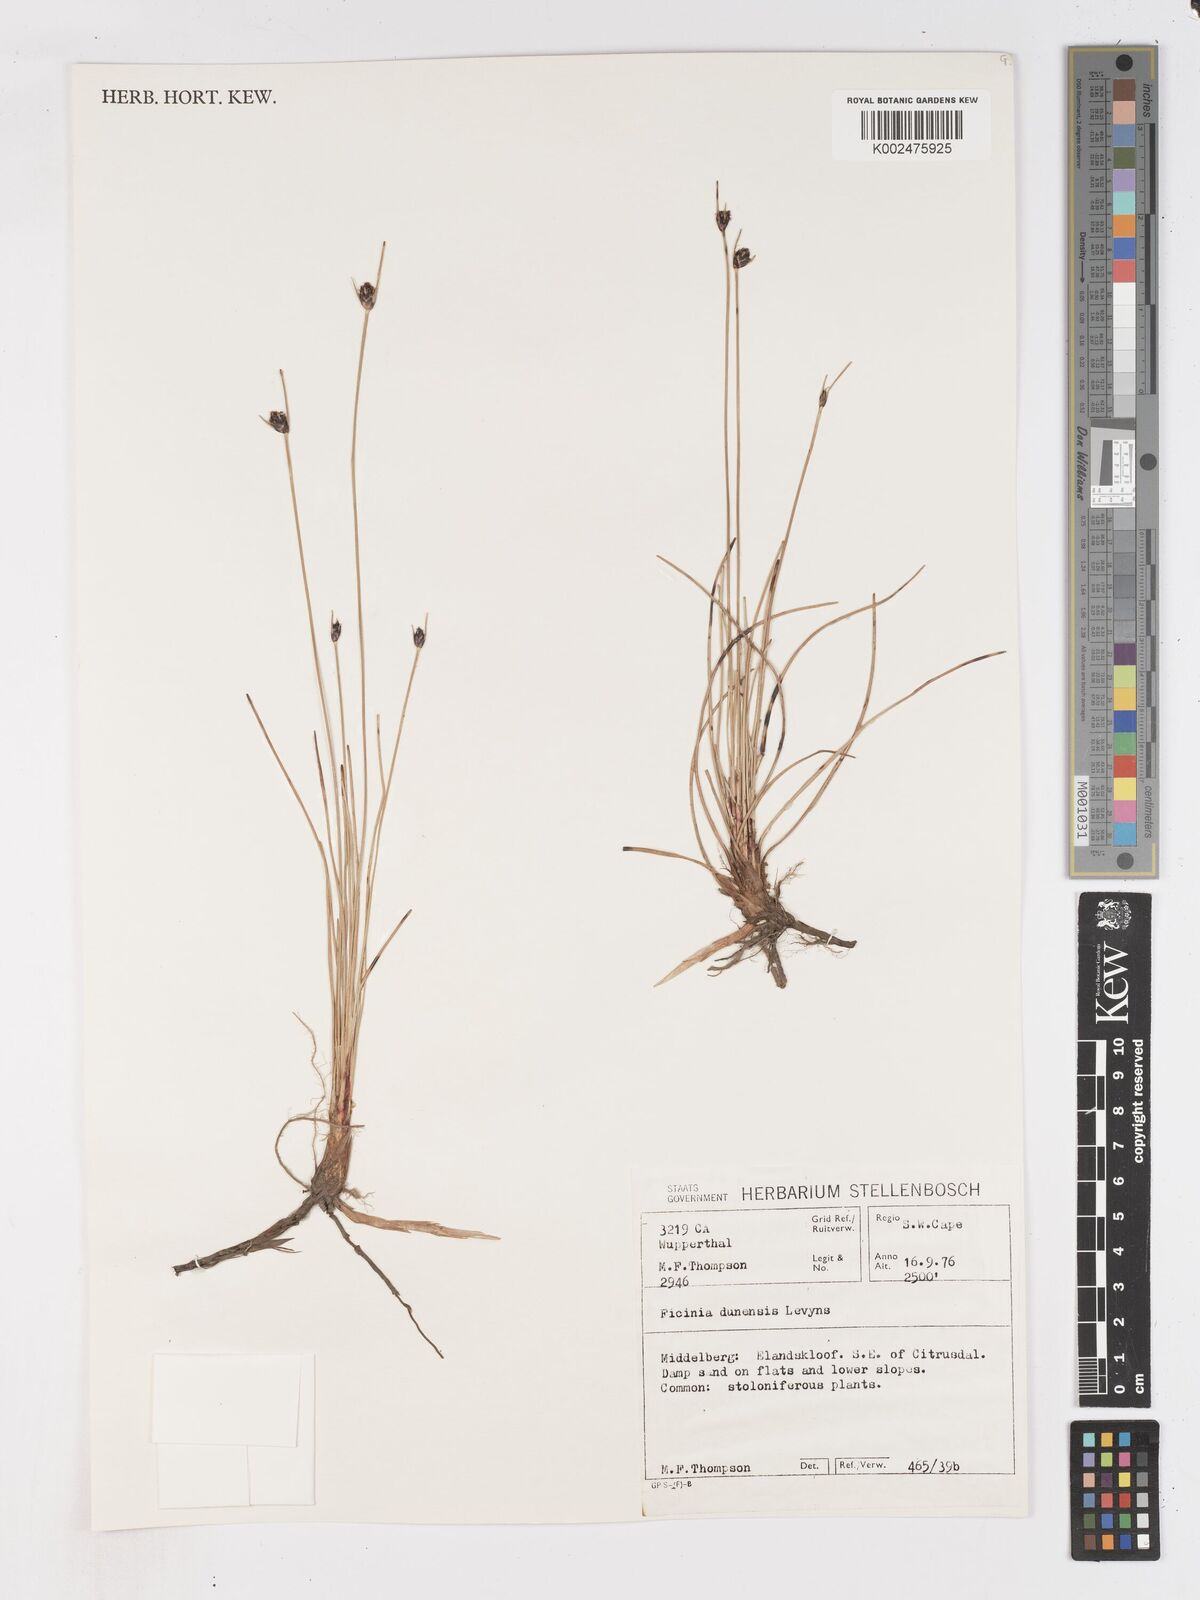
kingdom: Plantae
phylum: Tracheophyta
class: Liliopsida
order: Poales
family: Cyperaceae
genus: Ficinia
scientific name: Ficinia dunensis
